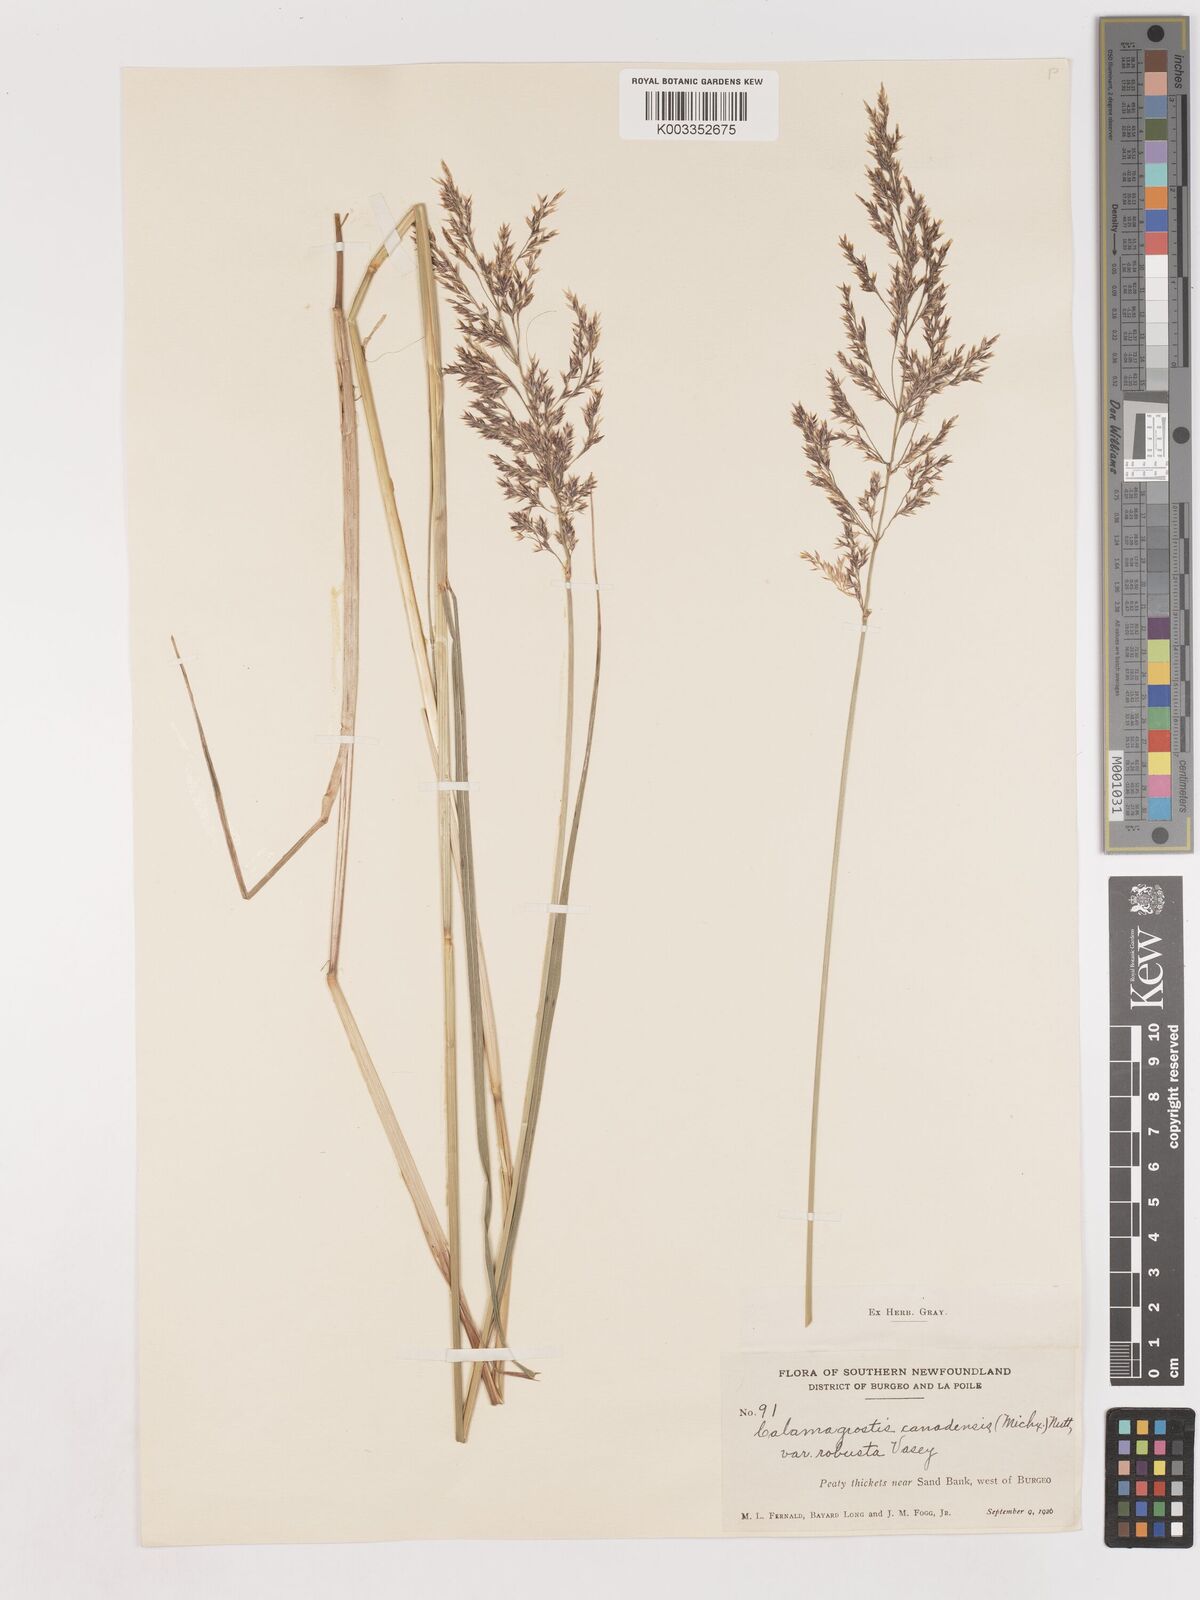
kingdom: Plantae
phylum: Tracheophyta
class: Liliopsida
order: Poales
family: Poaceae
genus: Calamagrostis
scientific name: Calamagrostis canadensis
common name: Canada bluejoint
